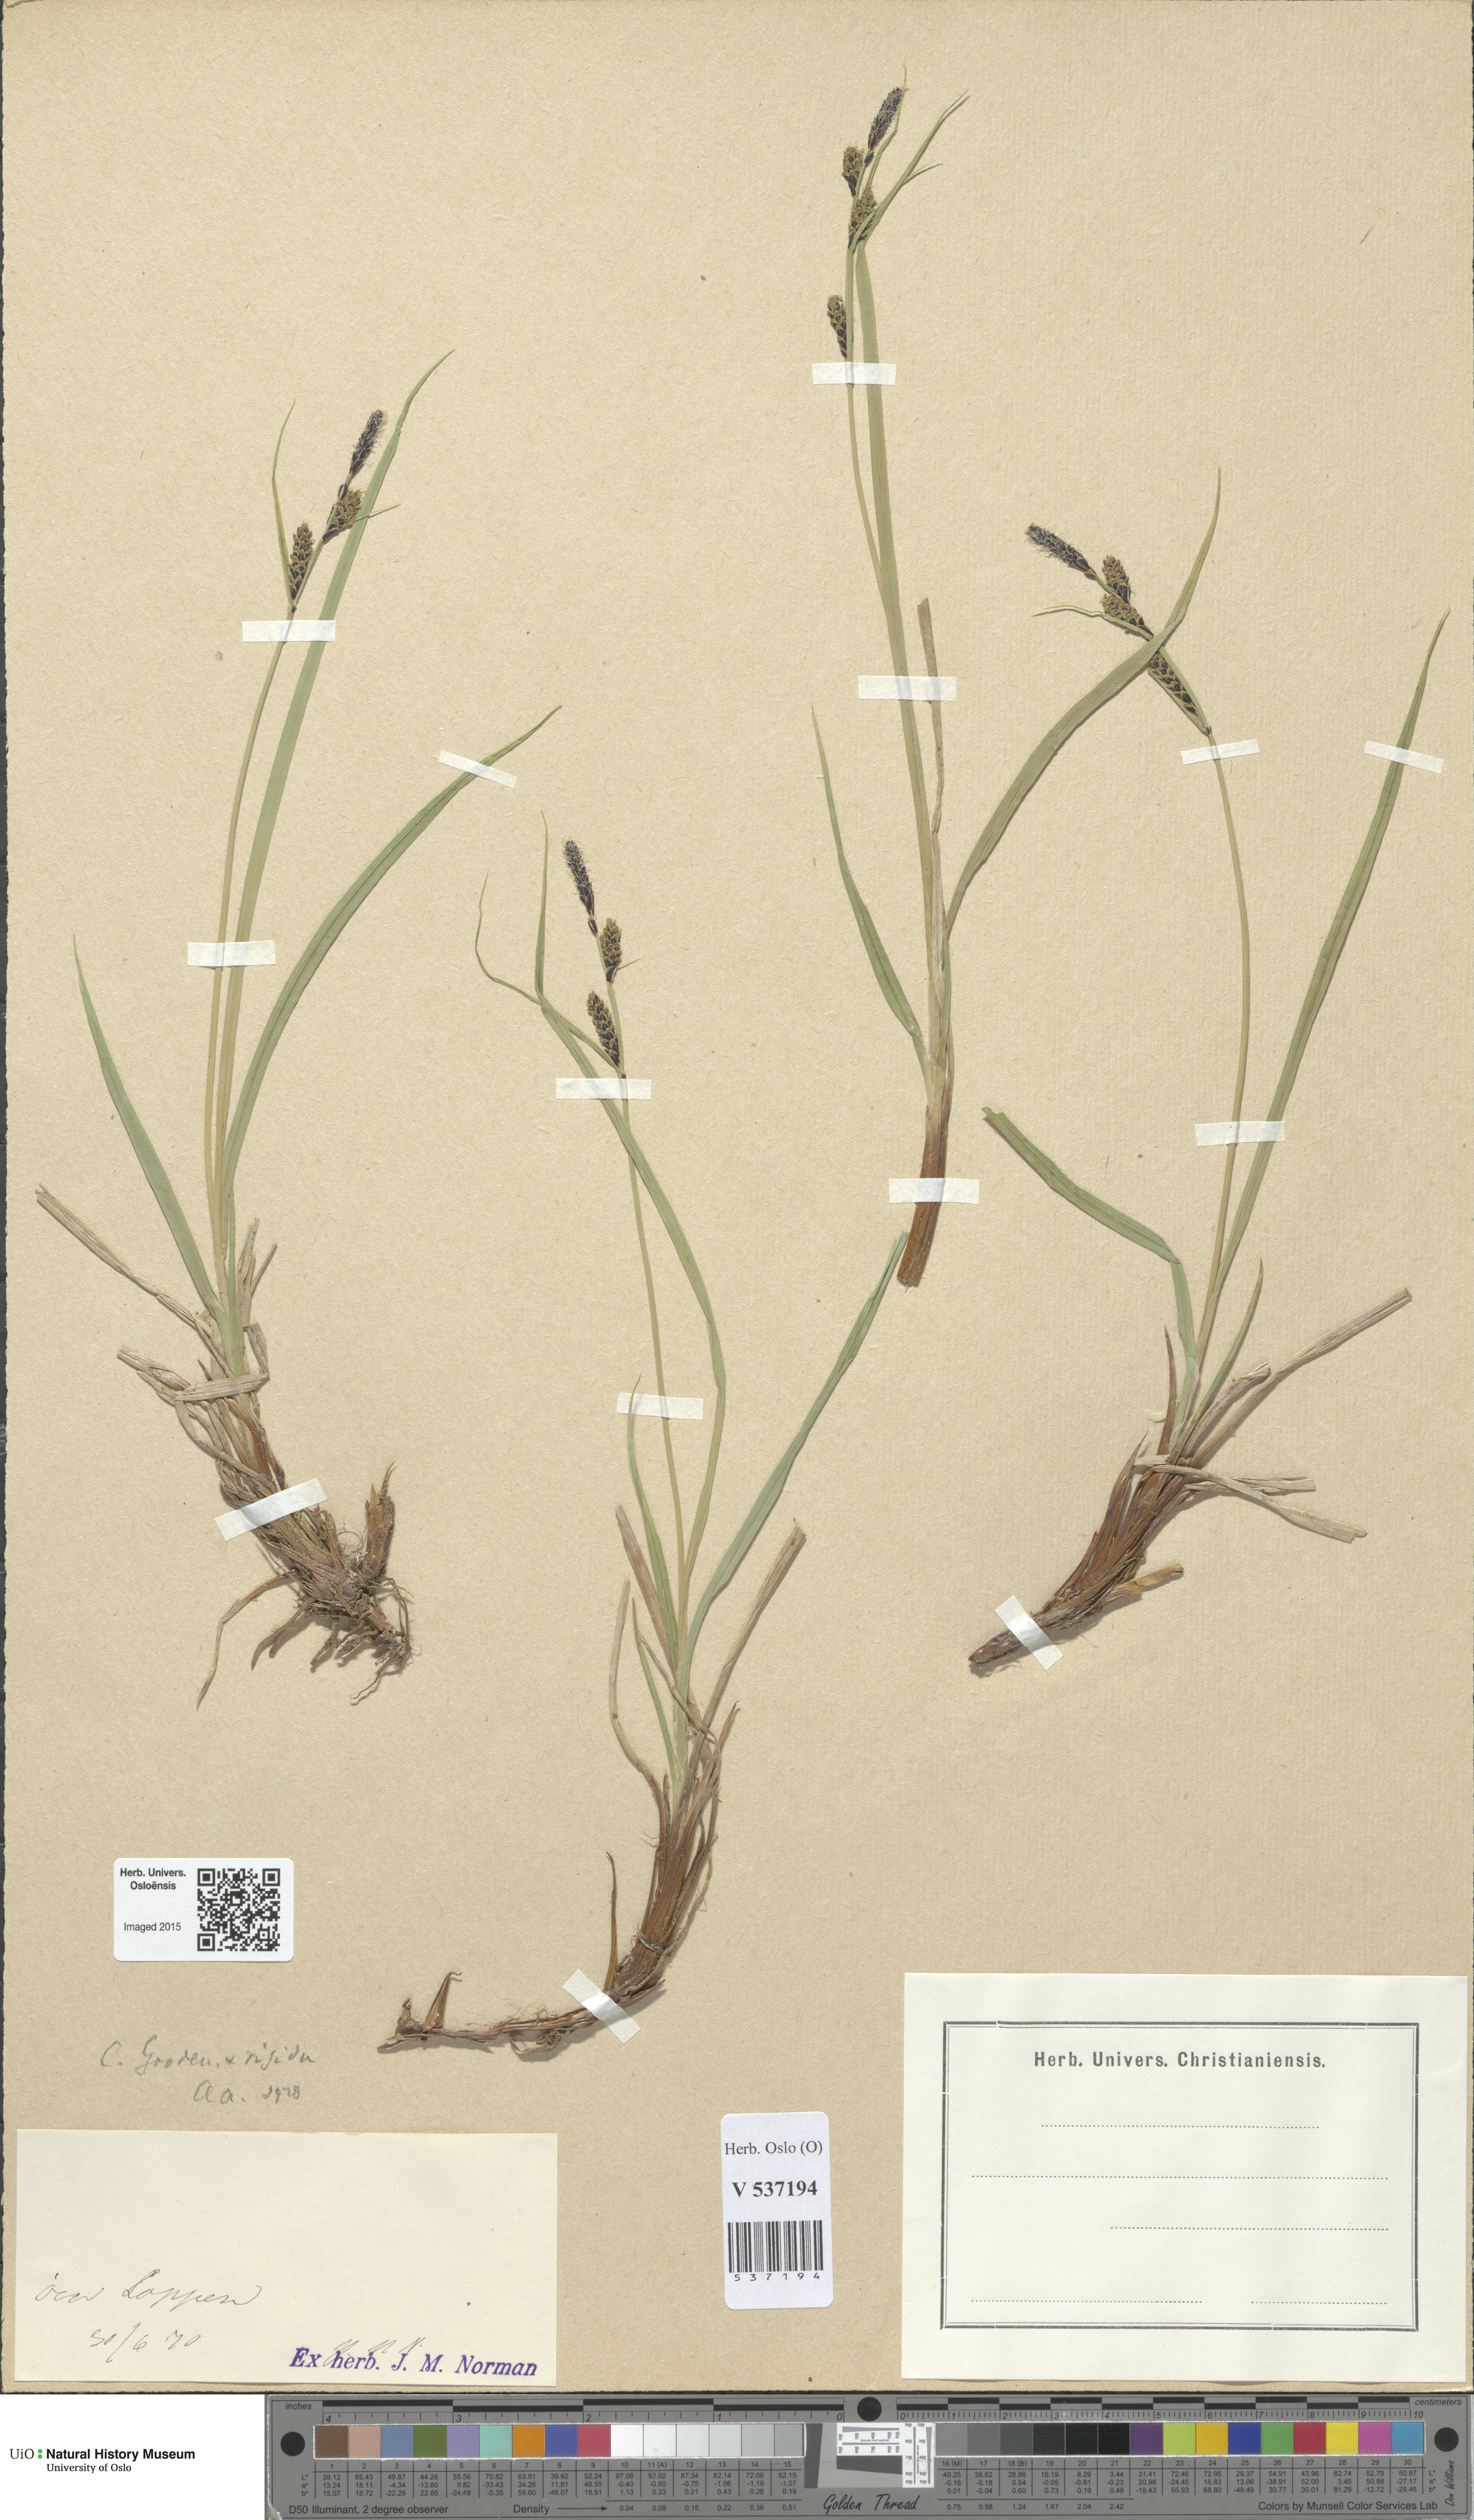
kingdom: Plantae
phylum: Tracheophyta
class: Liliopsida
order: Poales
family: Cyperaceae
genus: Carex
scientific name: Carex
